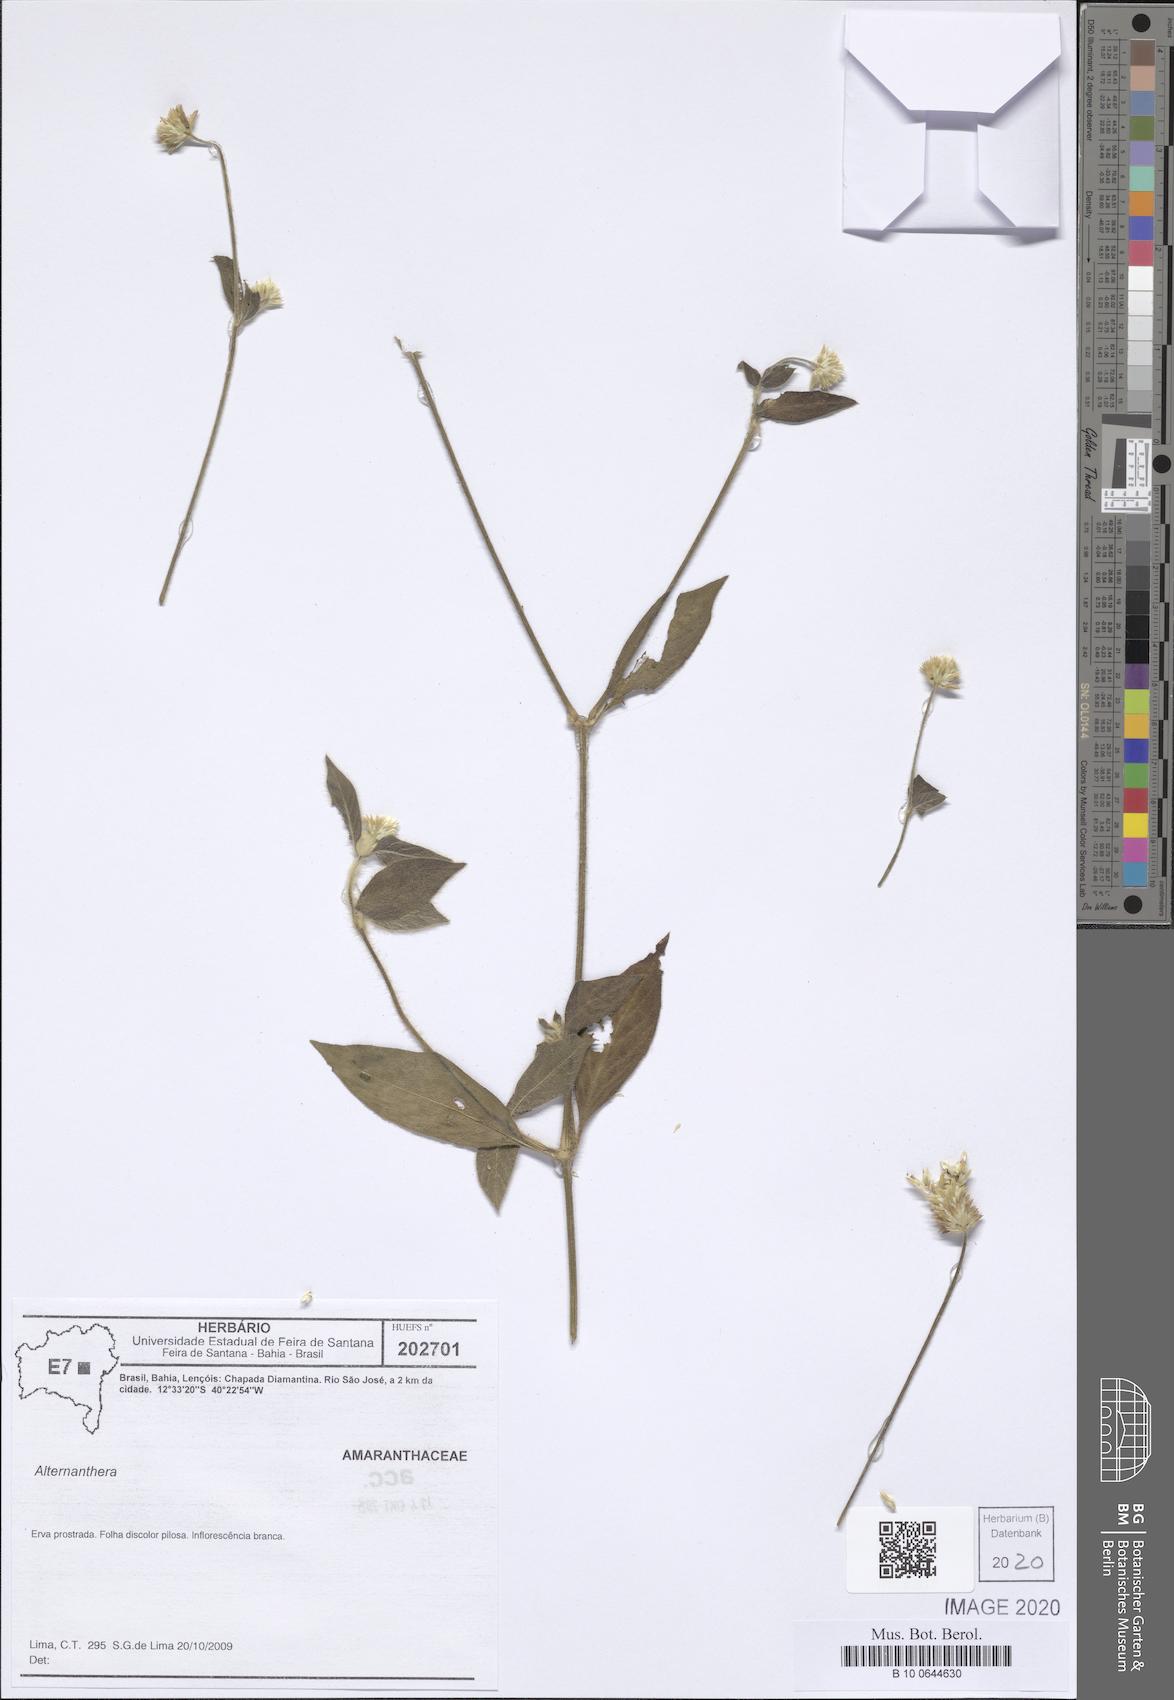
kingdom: Plantae
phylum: Tracheophyta
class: Magnoliopsida
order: Caryophyllales
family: Amaranthaceae
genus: Alternanthera
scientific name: Alternanthera
